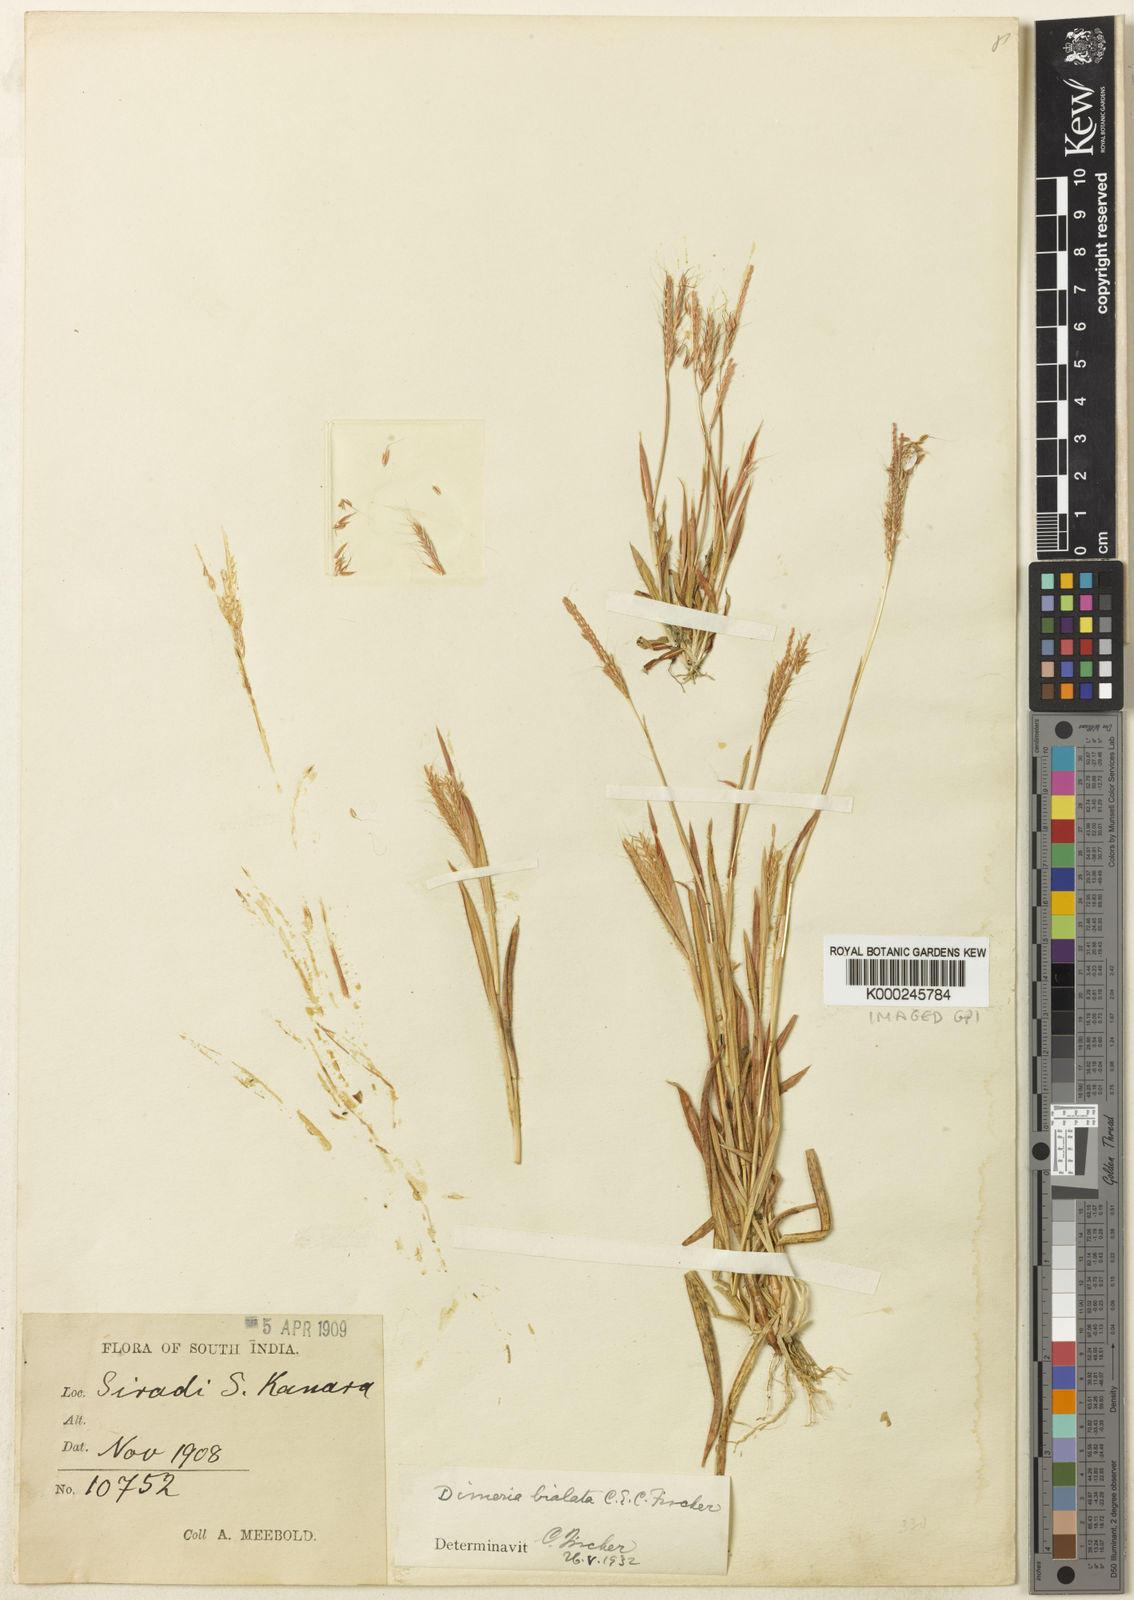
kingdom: Plantae
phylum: Tracheophyta
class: Liliopsida
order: Poales
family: Poaceae
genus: Dimeria
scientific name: Dimeria bialata
